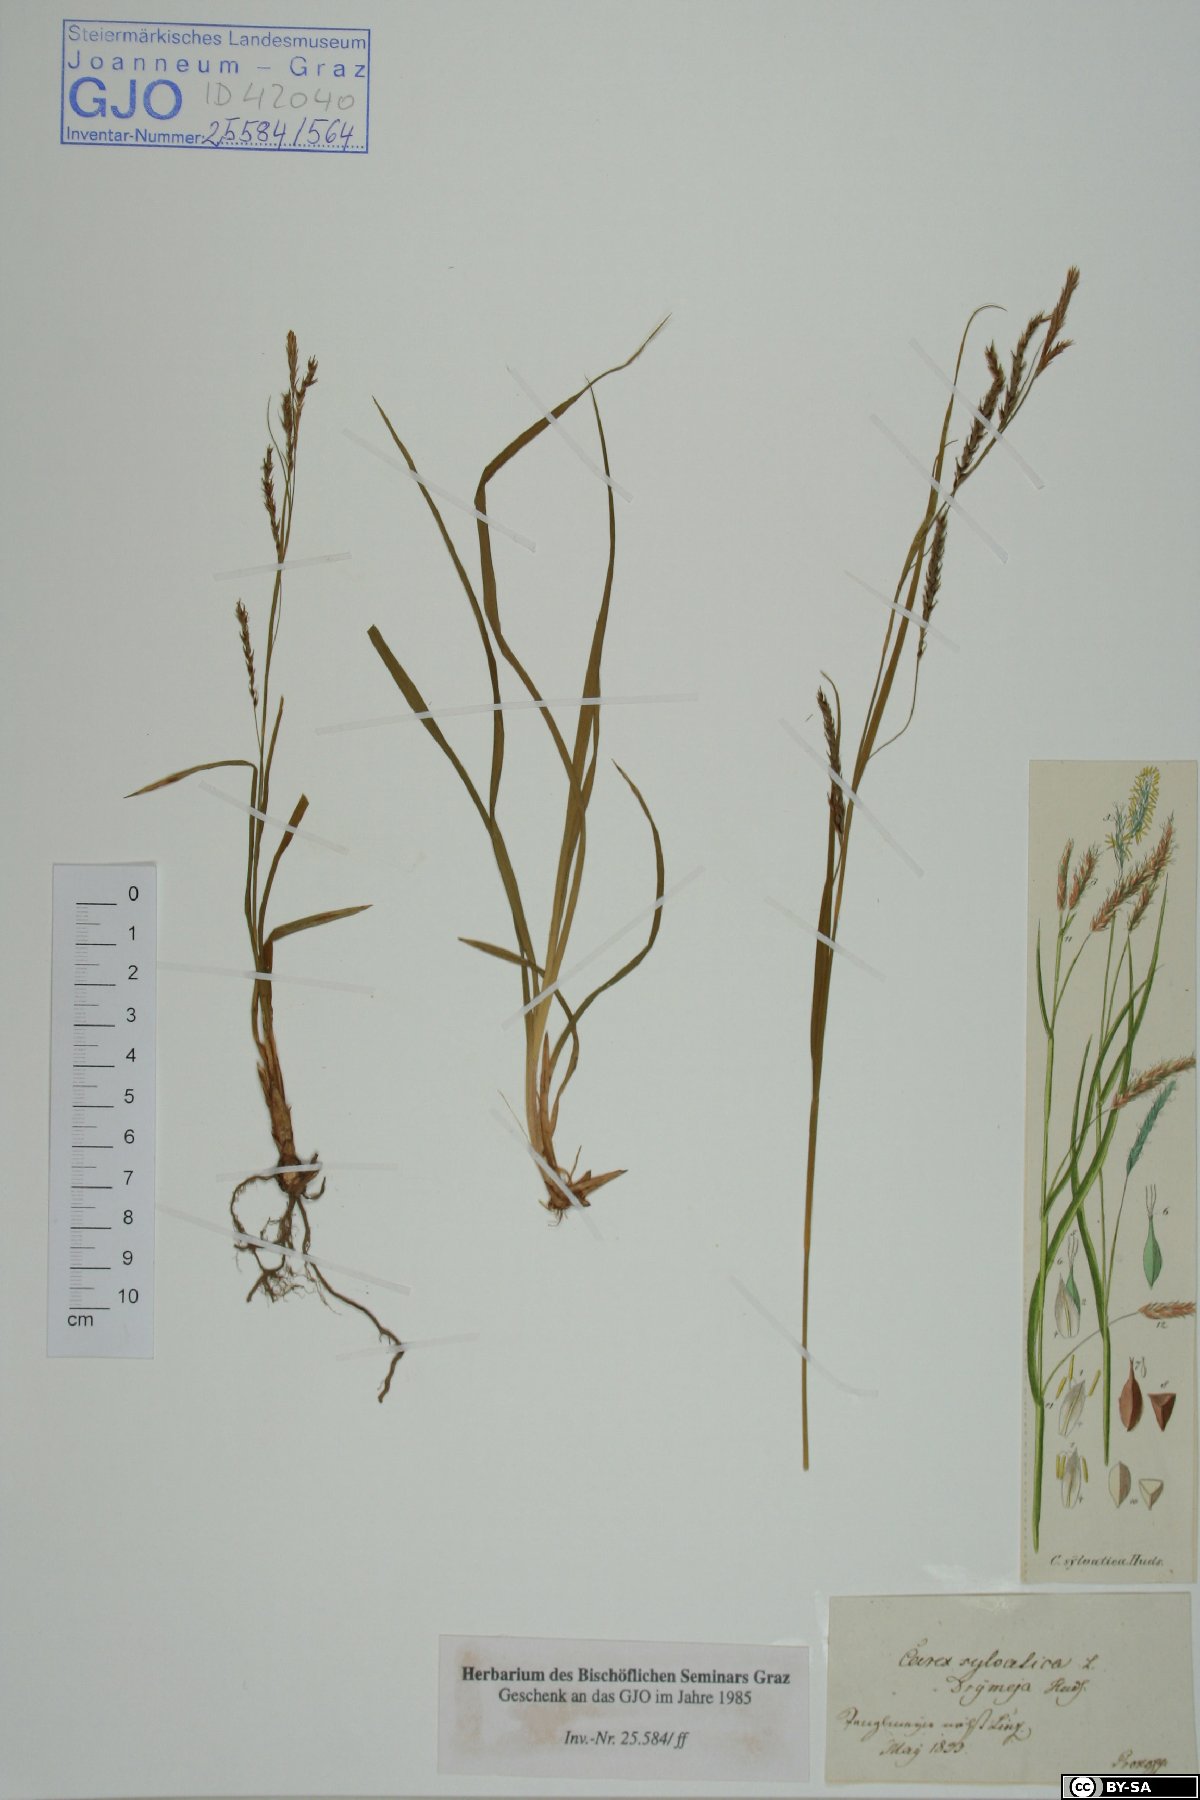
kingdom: Plantae
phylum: Tracheophyta
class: Liliopsida
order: Poales
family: Cyperaceae
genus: Carex
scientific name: Carex sylvatica
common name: Wood-sedge
